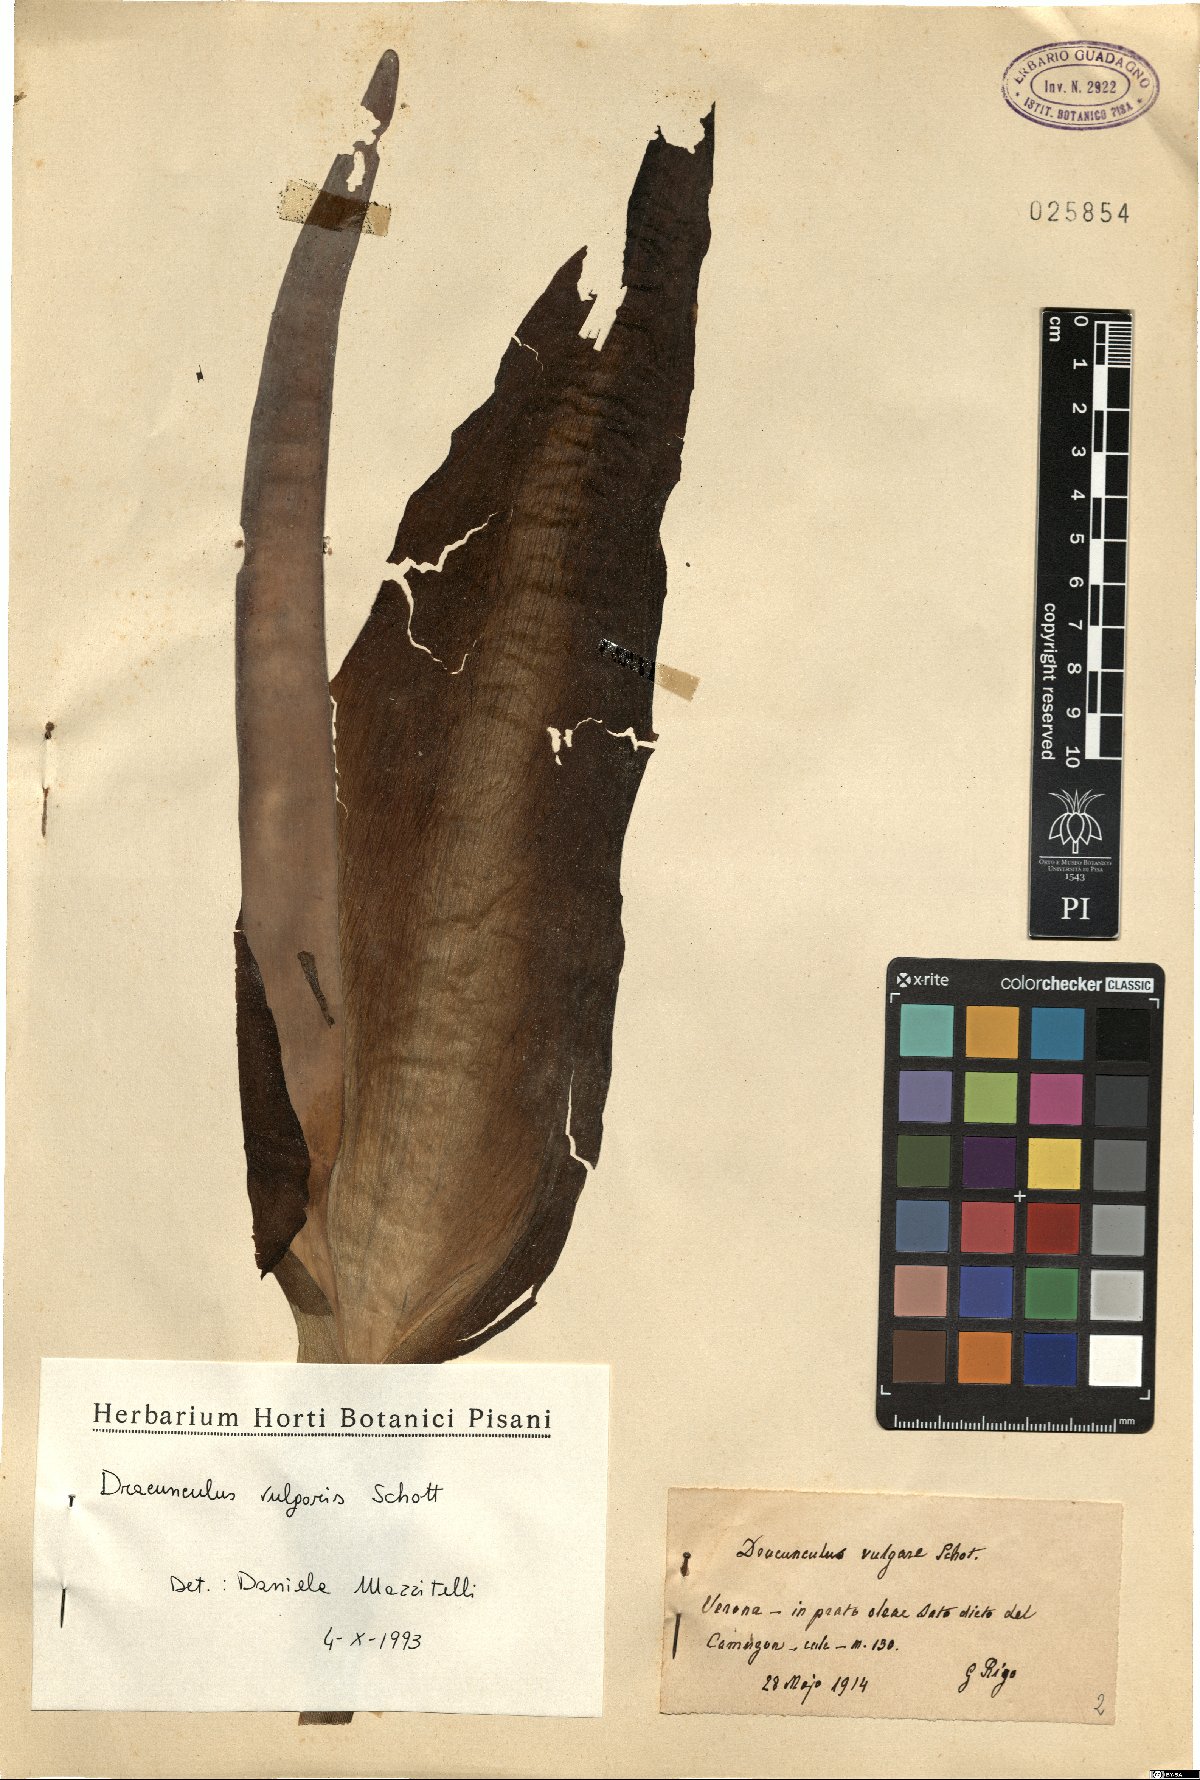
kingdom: Plantae
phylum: Tracheophyta
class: Liliopsida
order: Alismatales
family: Araceae
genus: Dracunculus
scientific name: Dracunculus vulgaris
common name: Dragon arum
